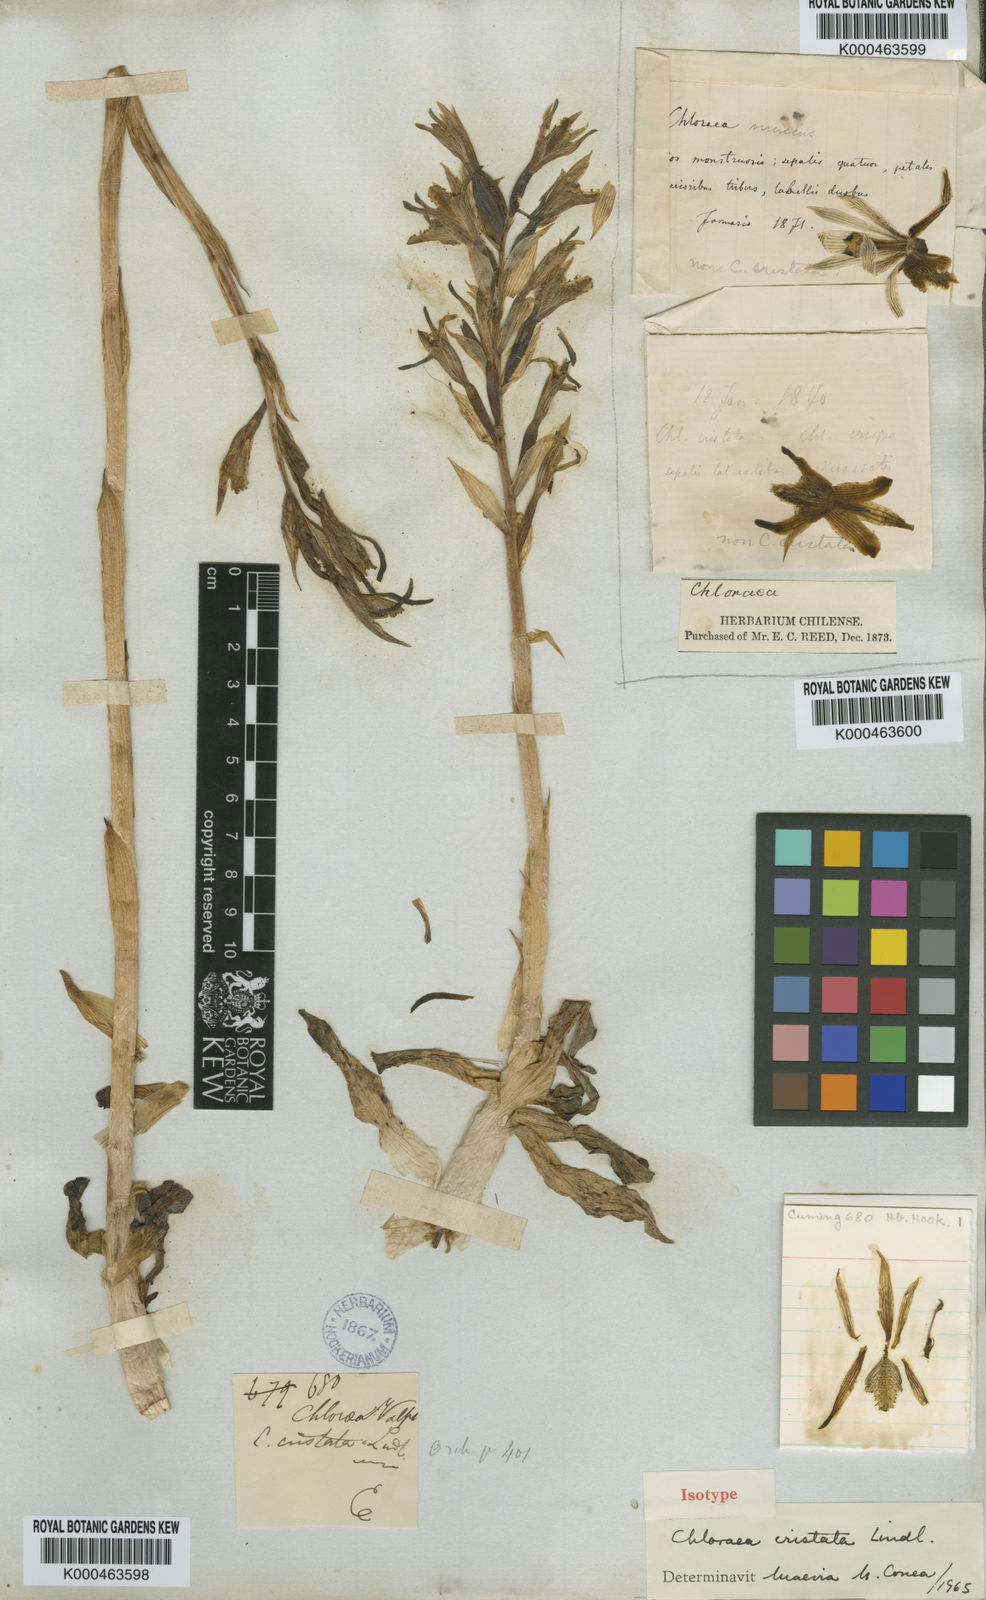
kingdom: Plantae
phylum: Tracheophyta
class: Liliopsida
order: Asparagales
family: Orchidaceae
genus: Chloraea
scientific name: Chloraea piquichen
